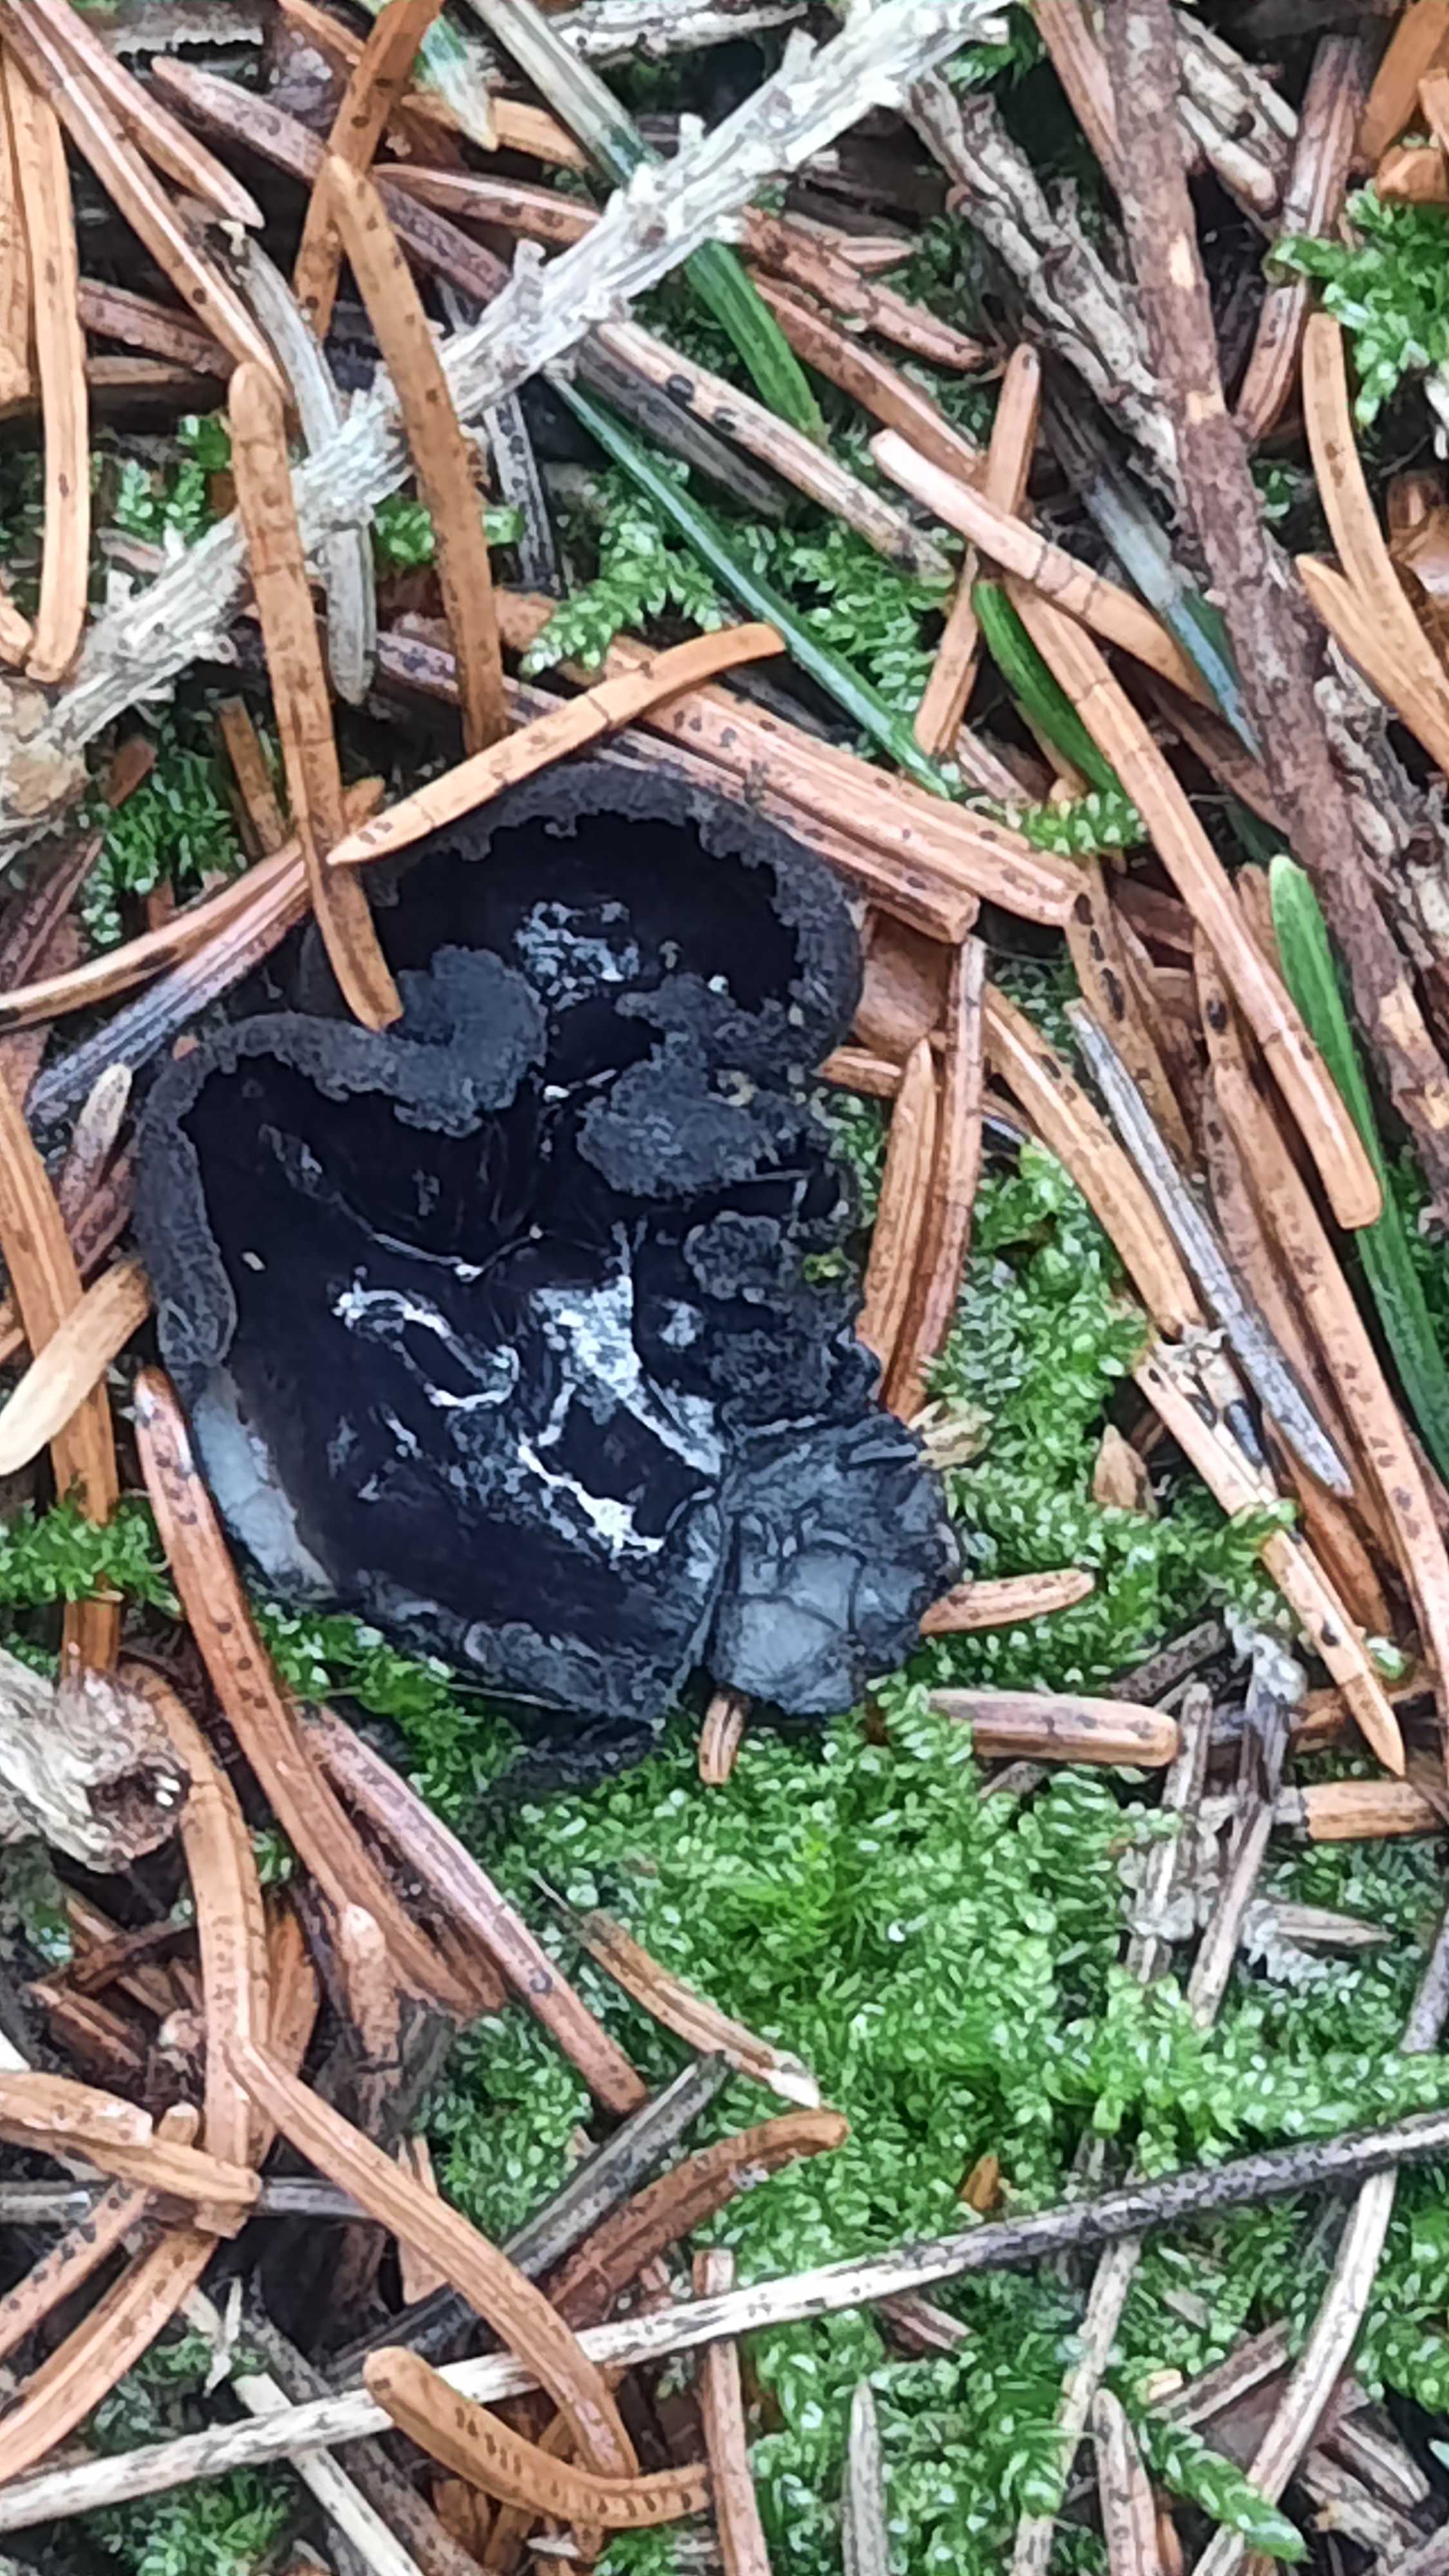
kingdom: Fungi
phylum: Ascomycota
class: Pezizomycetes
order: Pezizales
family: Sarcosomataceae
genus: Pseudoplectania
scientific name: Pseudoplectania nigrella
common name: almindelig sortbæger
